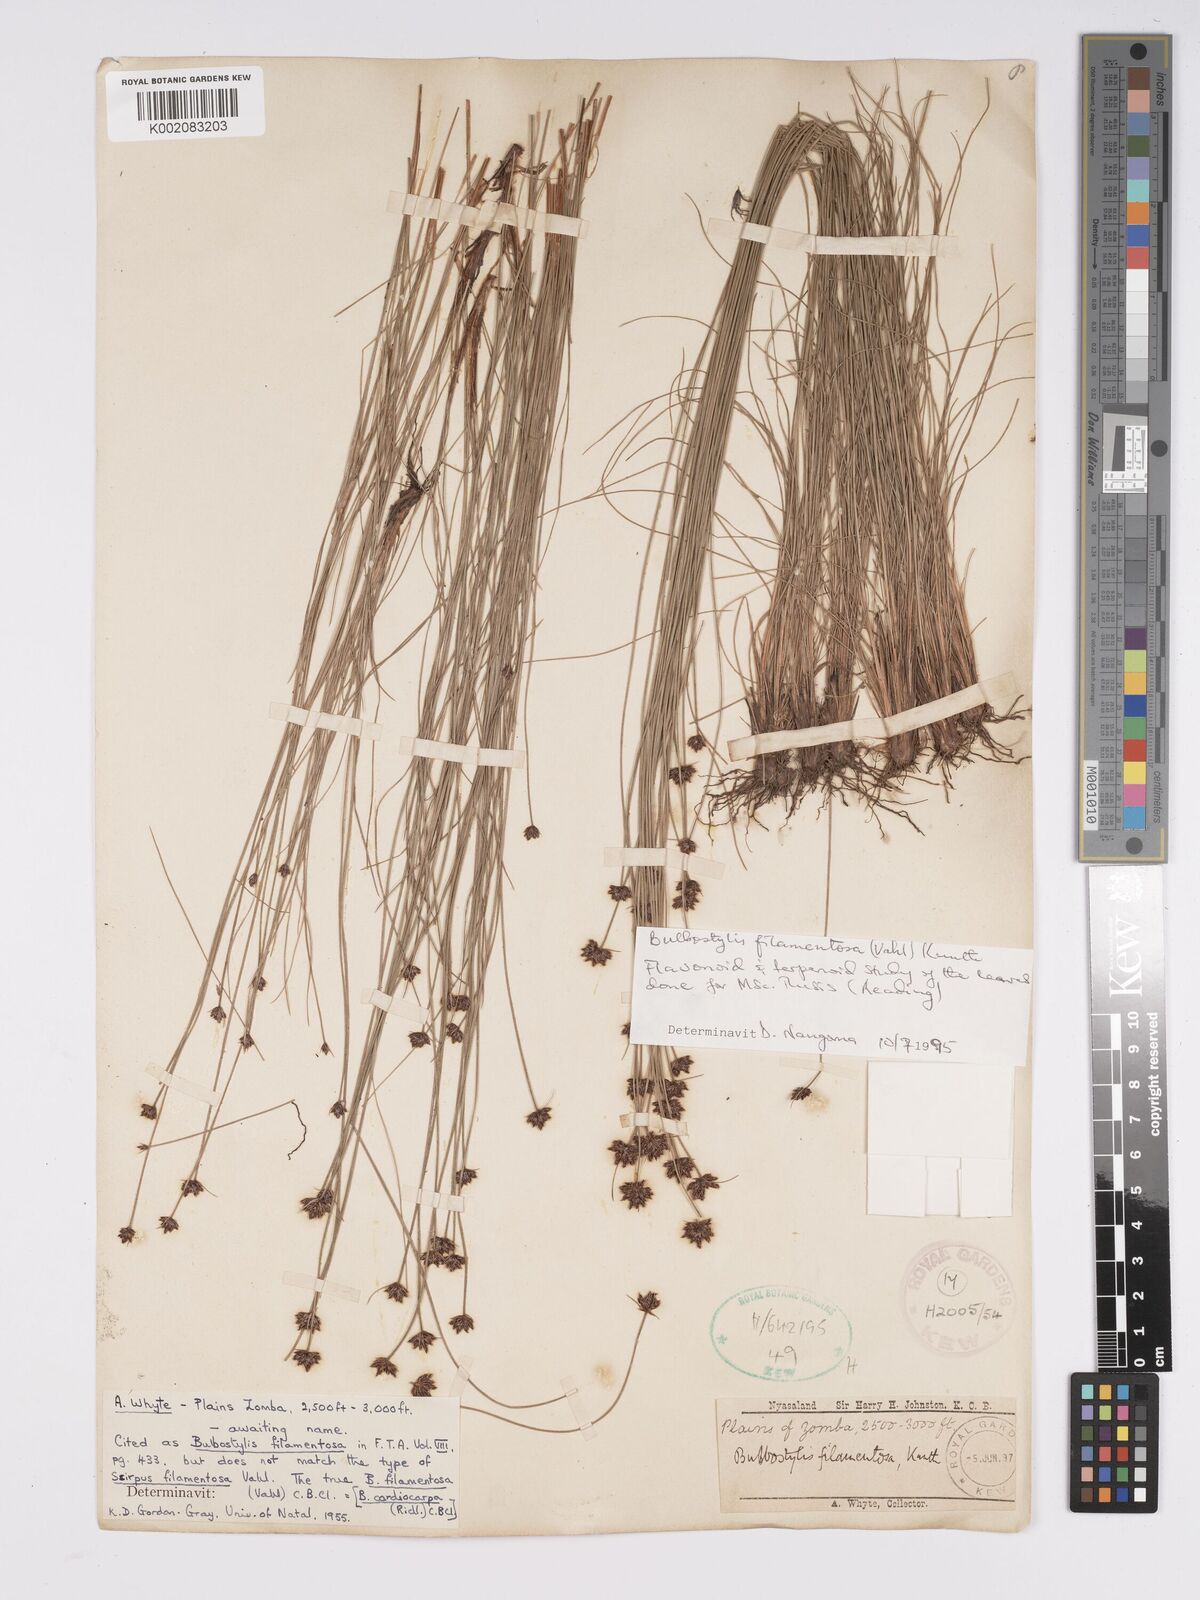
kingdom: Plantae
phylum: Tracheophyta
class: Liliopsida
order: Poales
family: Cyperaceae
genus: Bulbostylis
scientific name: Bulbostylis filamentosa
